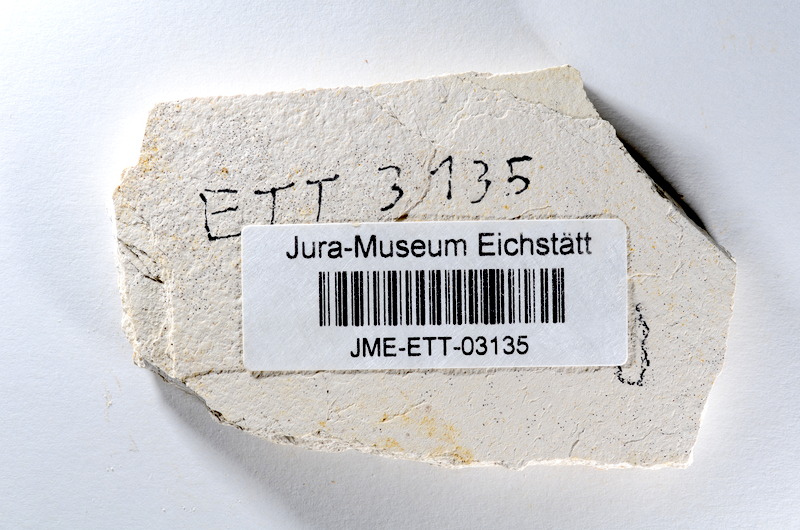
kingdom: Animalia
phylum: Chordata
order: Salmoniformes
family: Orthogonikleithridae
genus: Orthogonikleithrus
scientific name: Orthogonikleithrus hoelli
